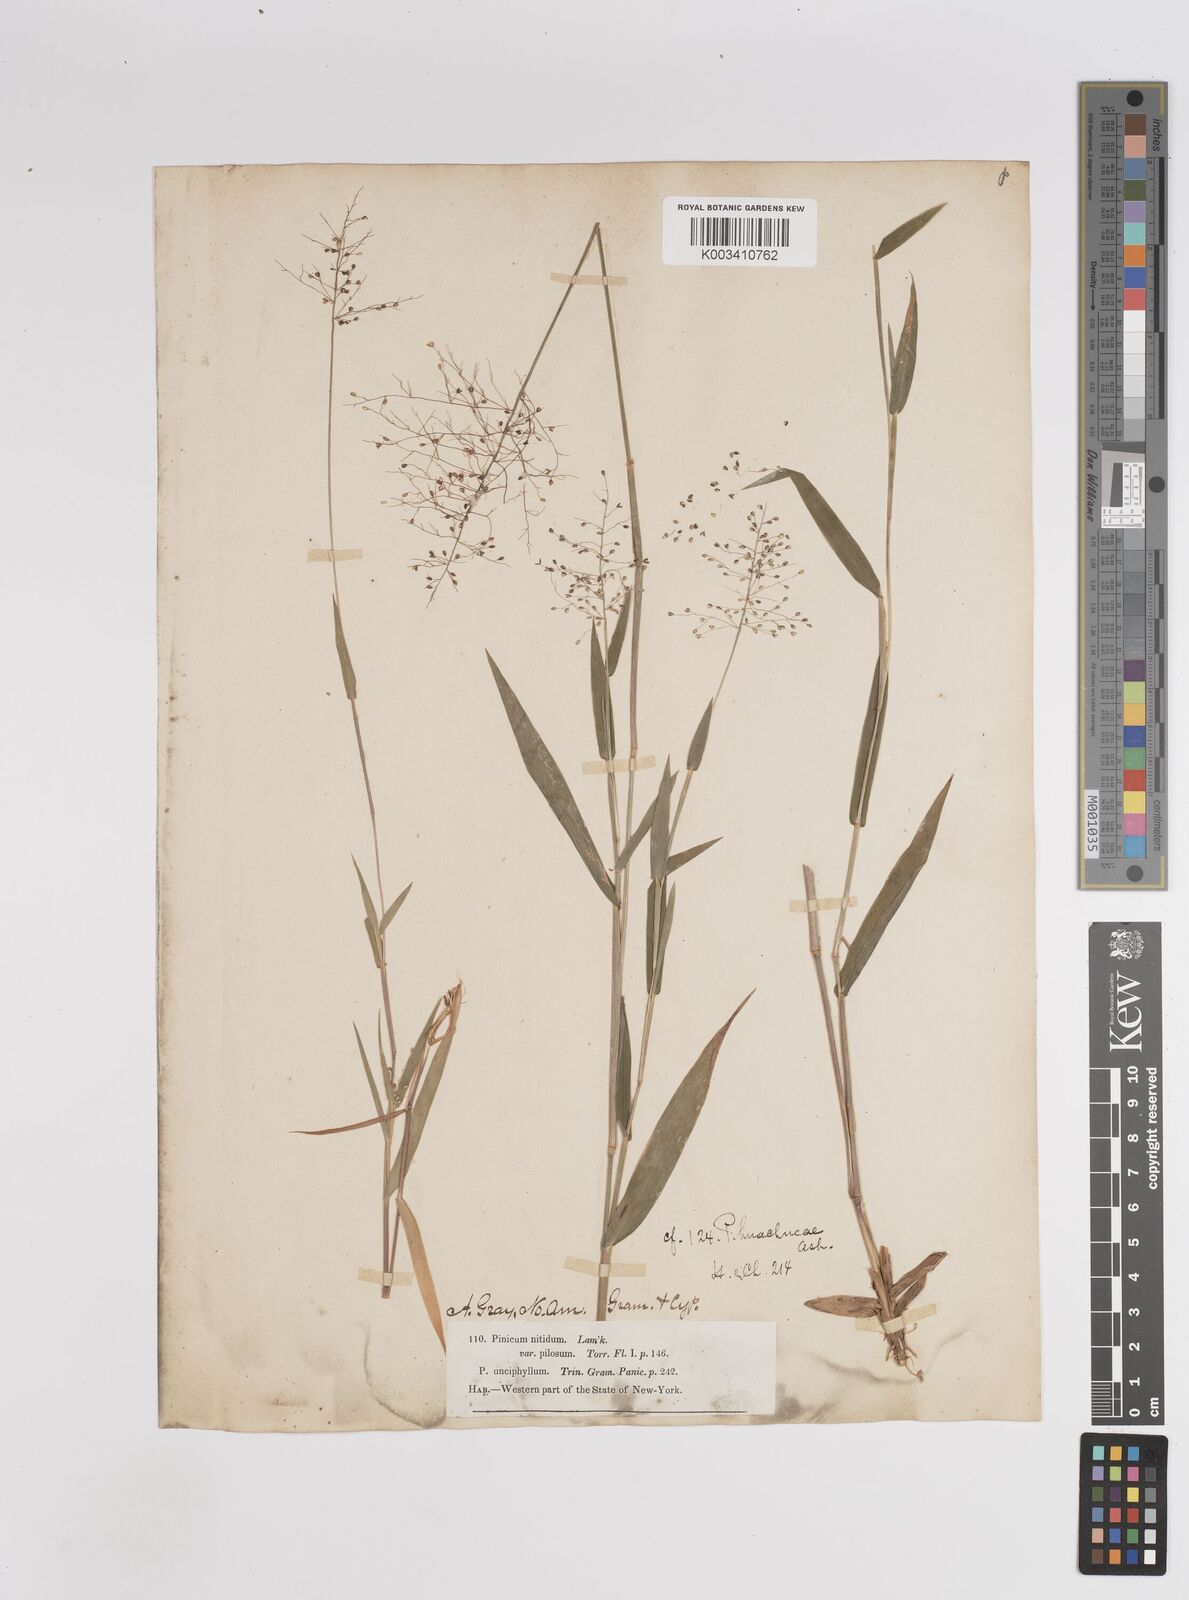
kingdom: Plantae
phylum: Tracheophyta
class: Liliopsida
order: Poales
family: Poaceae
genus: Dichanthelium
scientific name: Dichanthelium acuminatum
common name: Hairy panic grass
